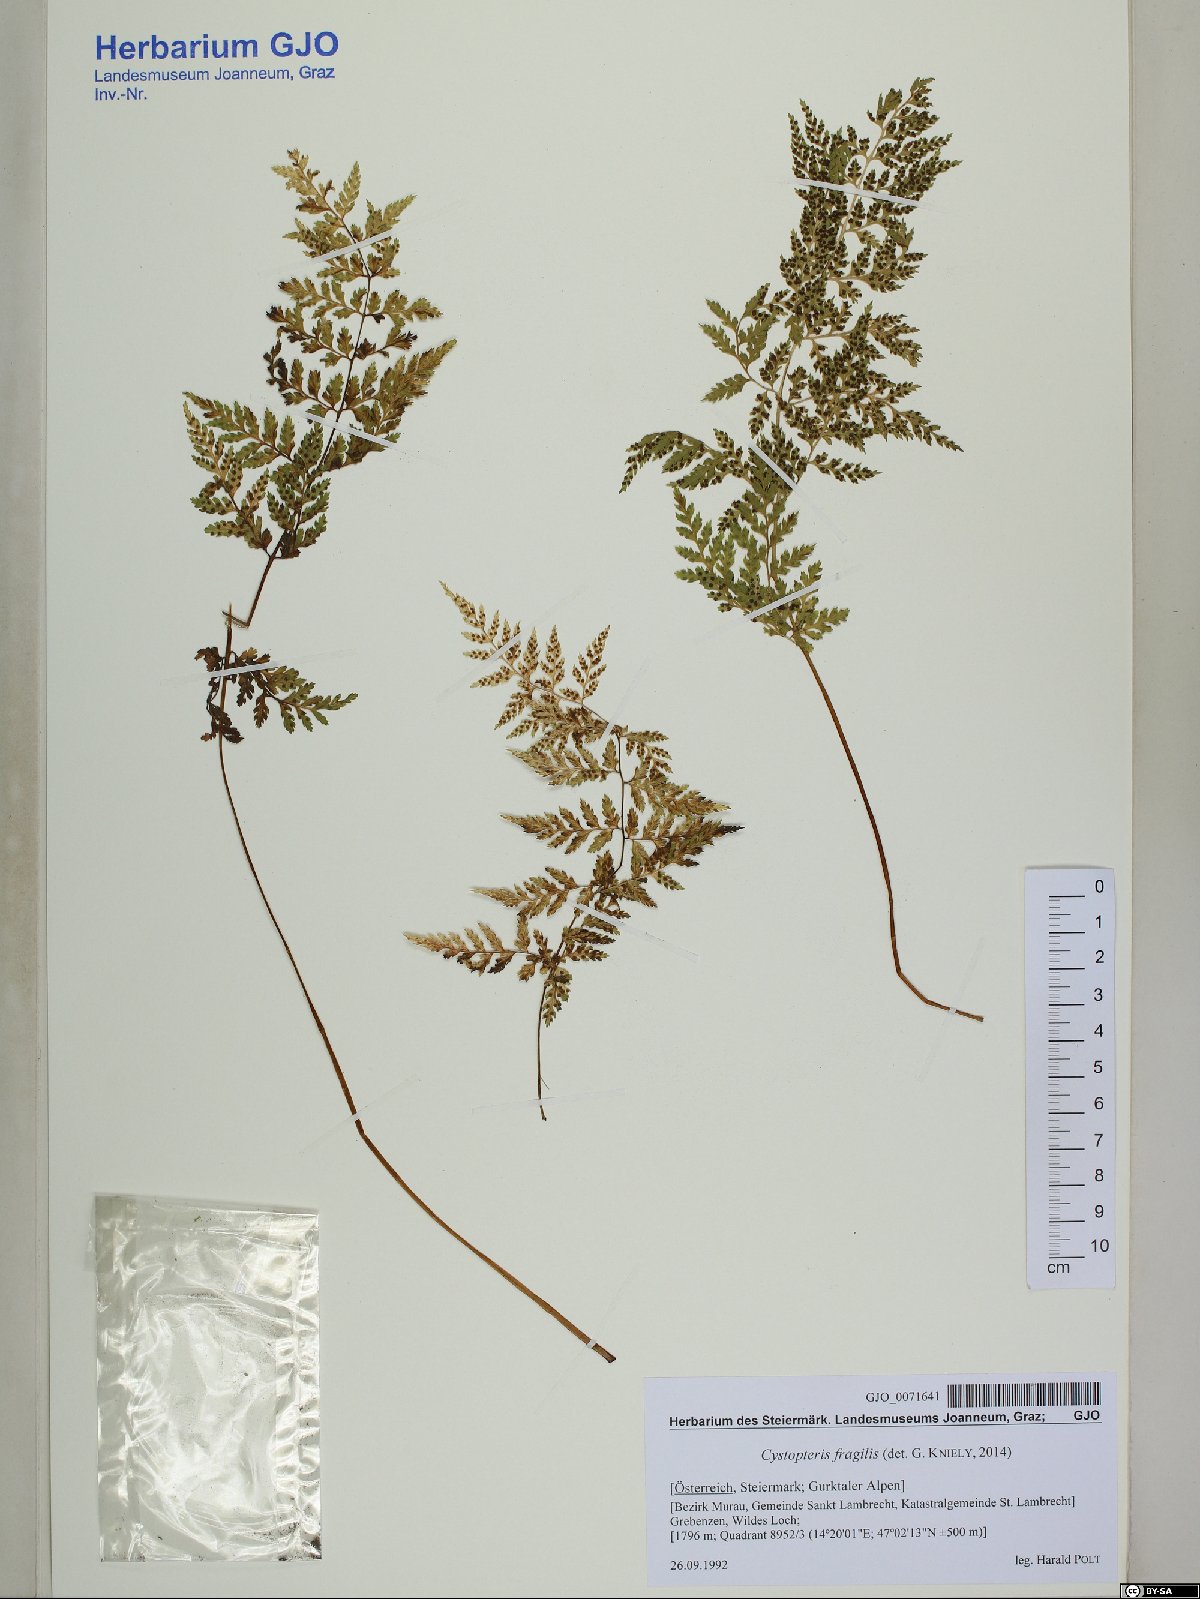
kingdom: Plantae
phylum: Tracheophyta
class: Polypodiopsida
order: Polypodiales
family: Cystopteridaceae
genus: Cystopteris
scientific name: Cystopteris fragilis
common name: Brittle bladder fern
